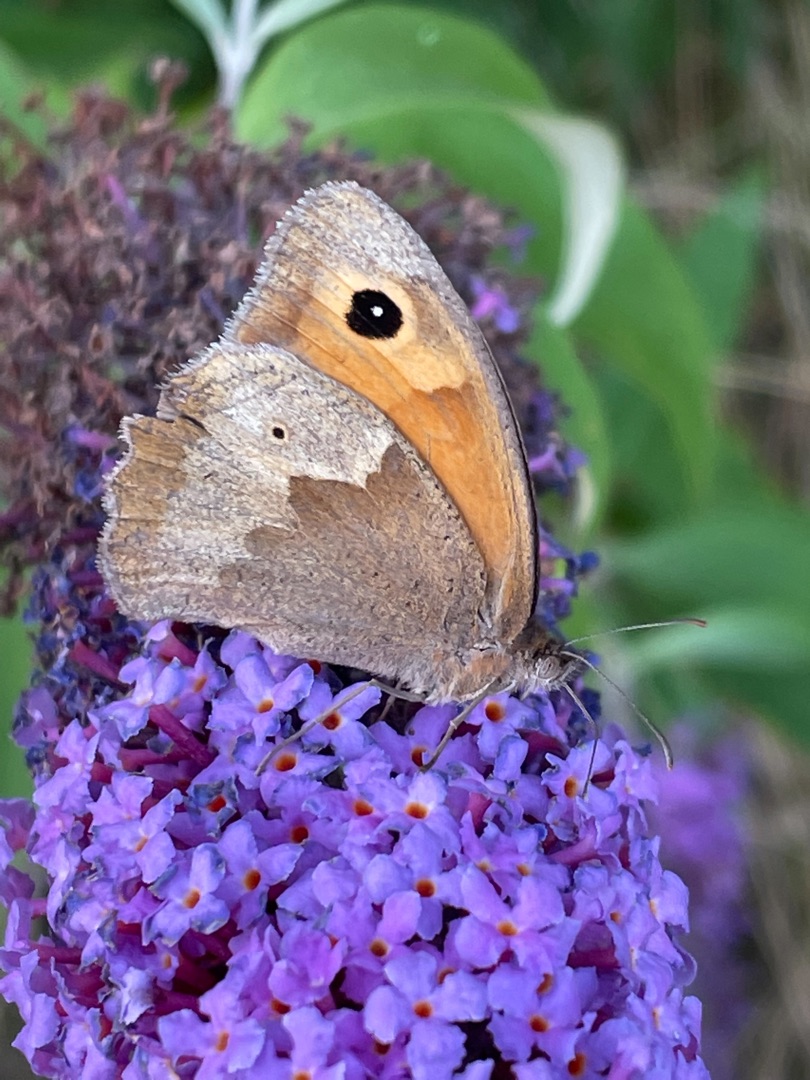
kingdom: Animalia
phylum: Arthropoda
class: Insecta
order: Lepidoptera
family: Nymphalidae
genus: Maniola
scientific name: Maniola jurtina
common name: Græsrandøje
